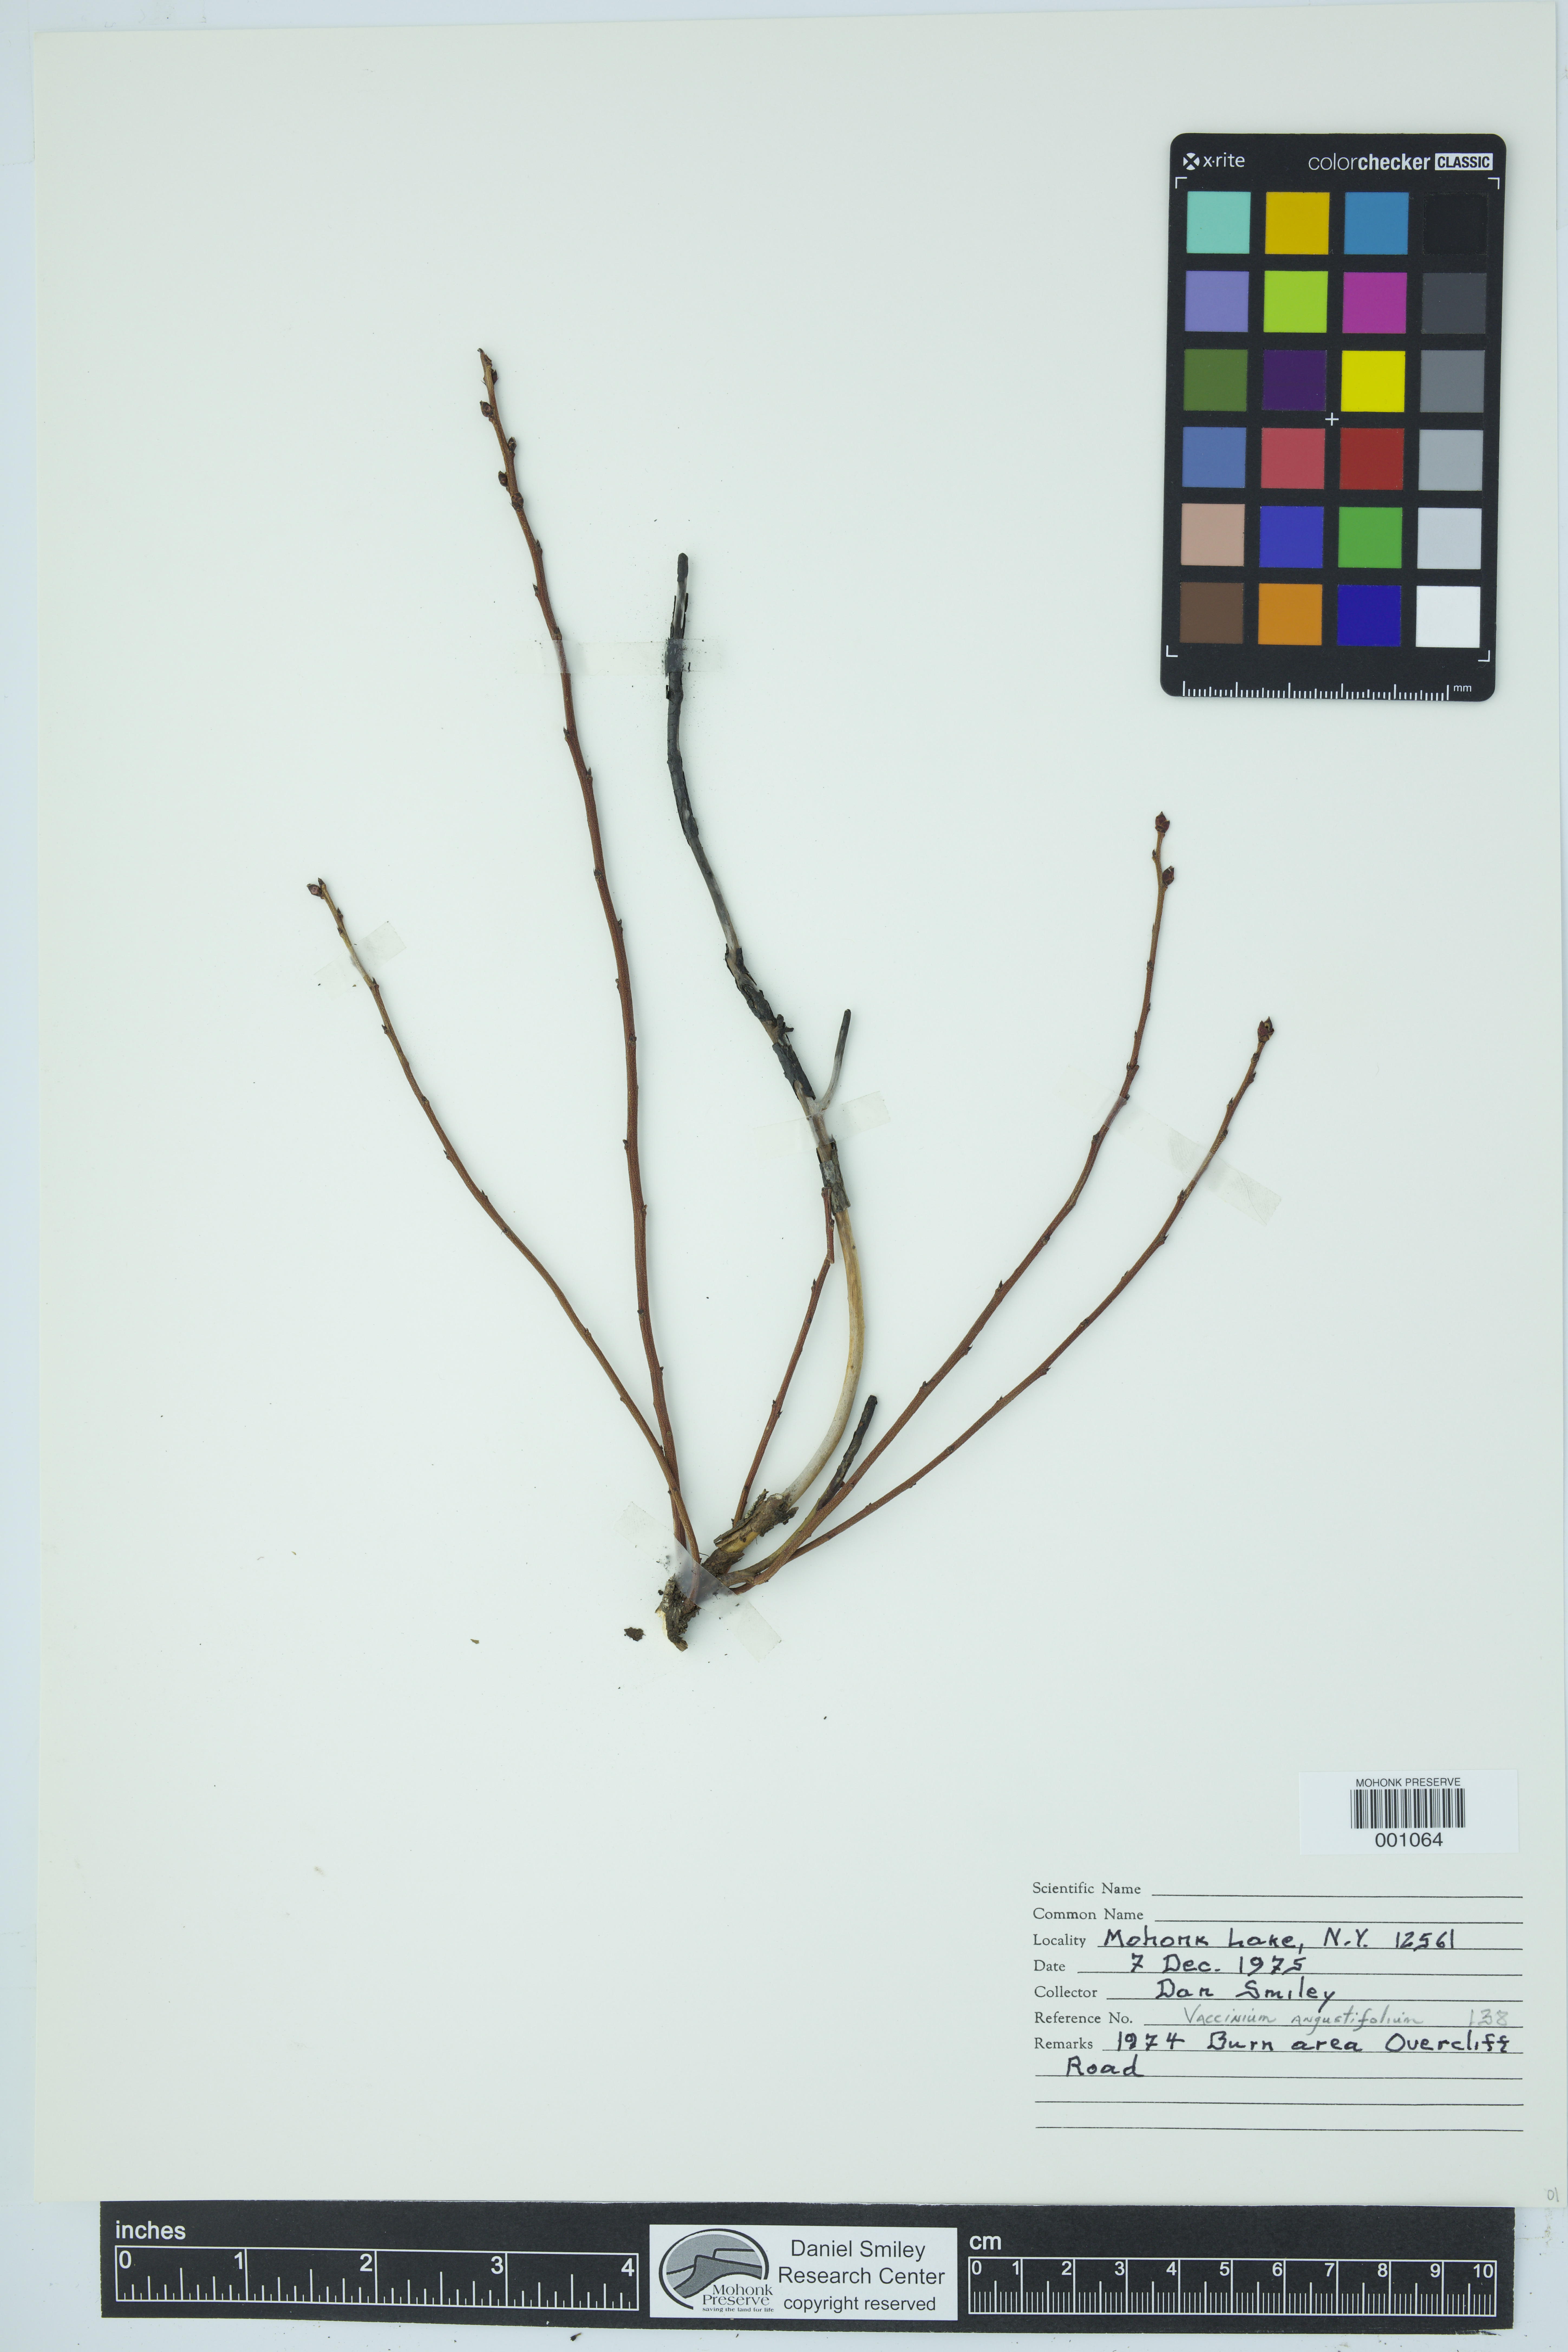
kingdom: Plantae
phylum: Tracheophyta
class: Magnoliopsida
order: Ericales
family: Ericaceae
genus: Vaccinium
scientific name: Vaccinium angustifolium
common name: Early lowbush blueberry
